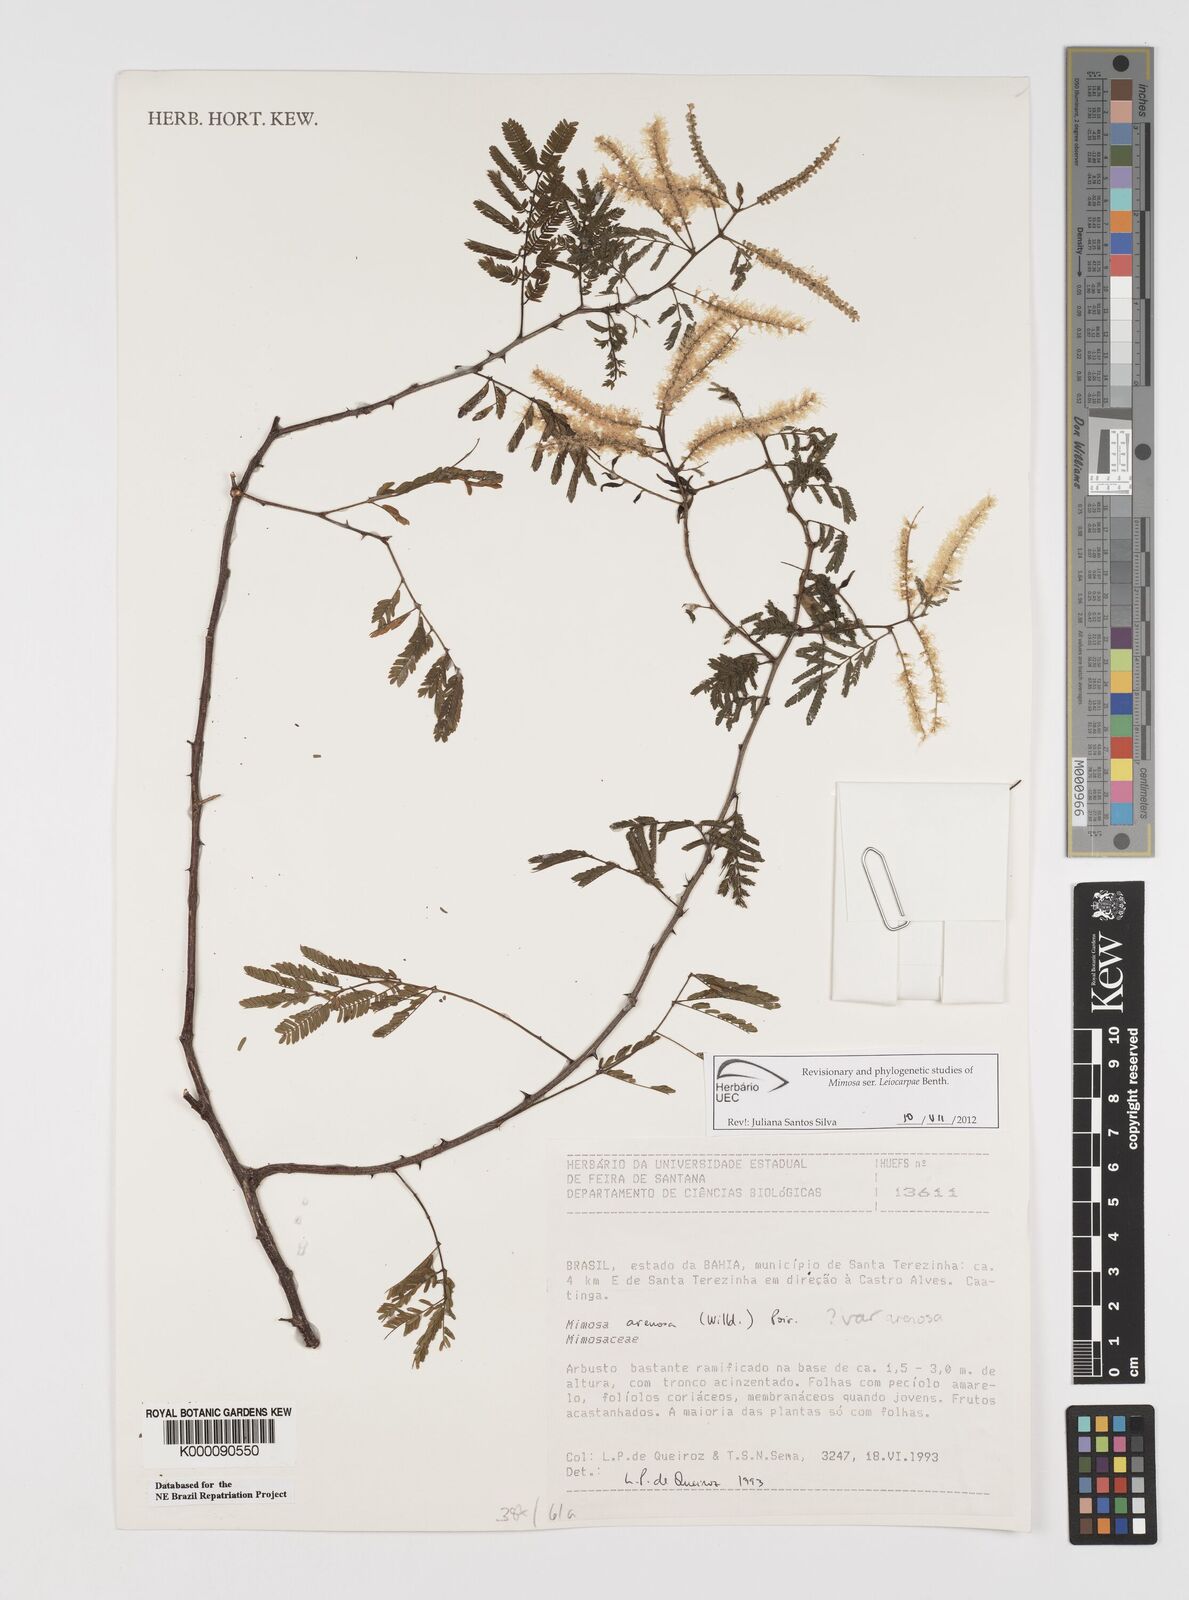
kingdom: Plantae
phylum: Tracheophyta
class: Magnoliopsida
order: Fabales
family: Fabaceae
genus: Mimosa
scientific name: Mimosa arenosa
